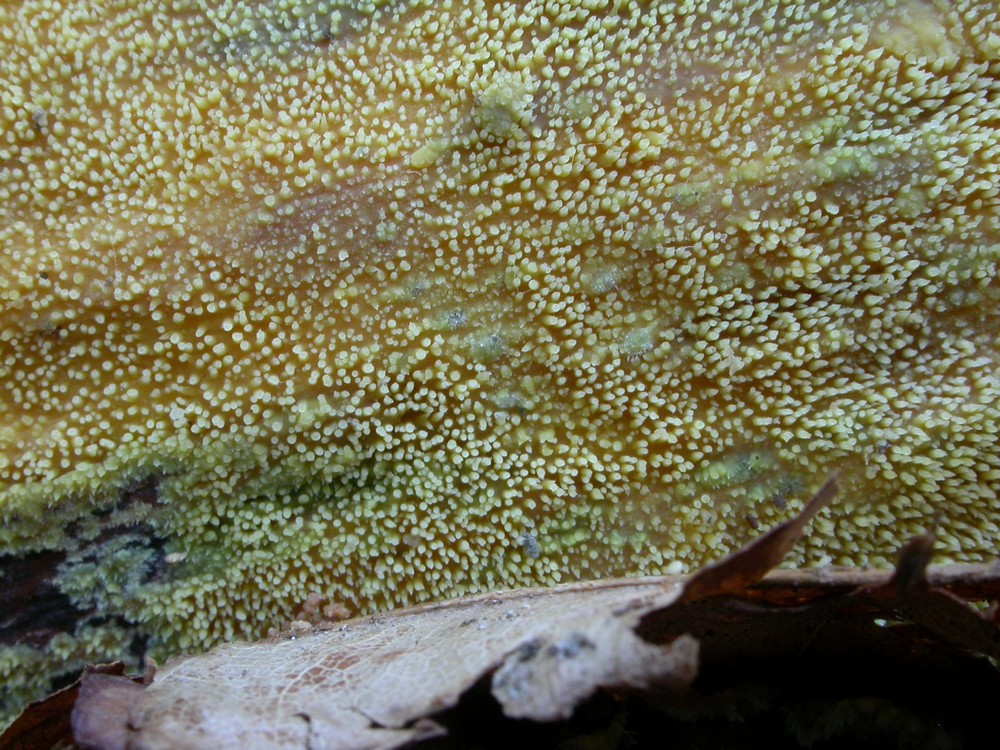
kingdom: Fungi
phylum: Basidiomycota
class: Agaricomycetes
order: Polyporales
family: Meruliaceae
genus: Mycoacia
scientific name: Mycoacia uda
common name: citrongul vokspig
